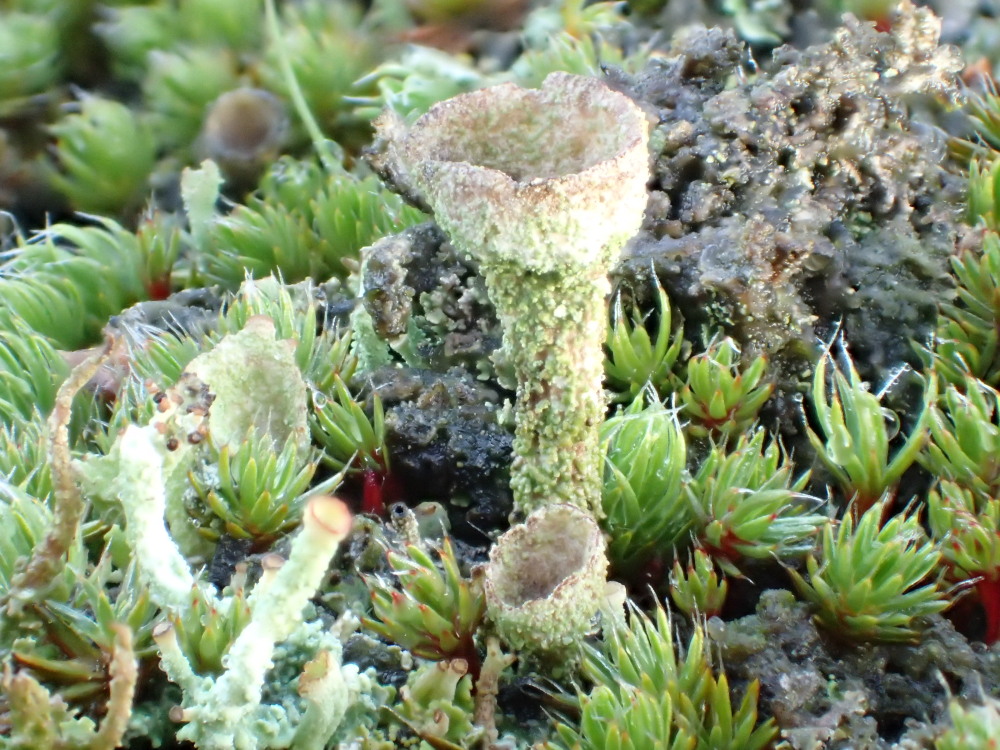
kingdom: Fungi
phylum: Ascomycota
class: Lecanoromycetes
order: Lecanorales
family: Cladoniaceae
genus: Cladonia
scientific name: Cladonia
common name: brungrøn bægerlav
